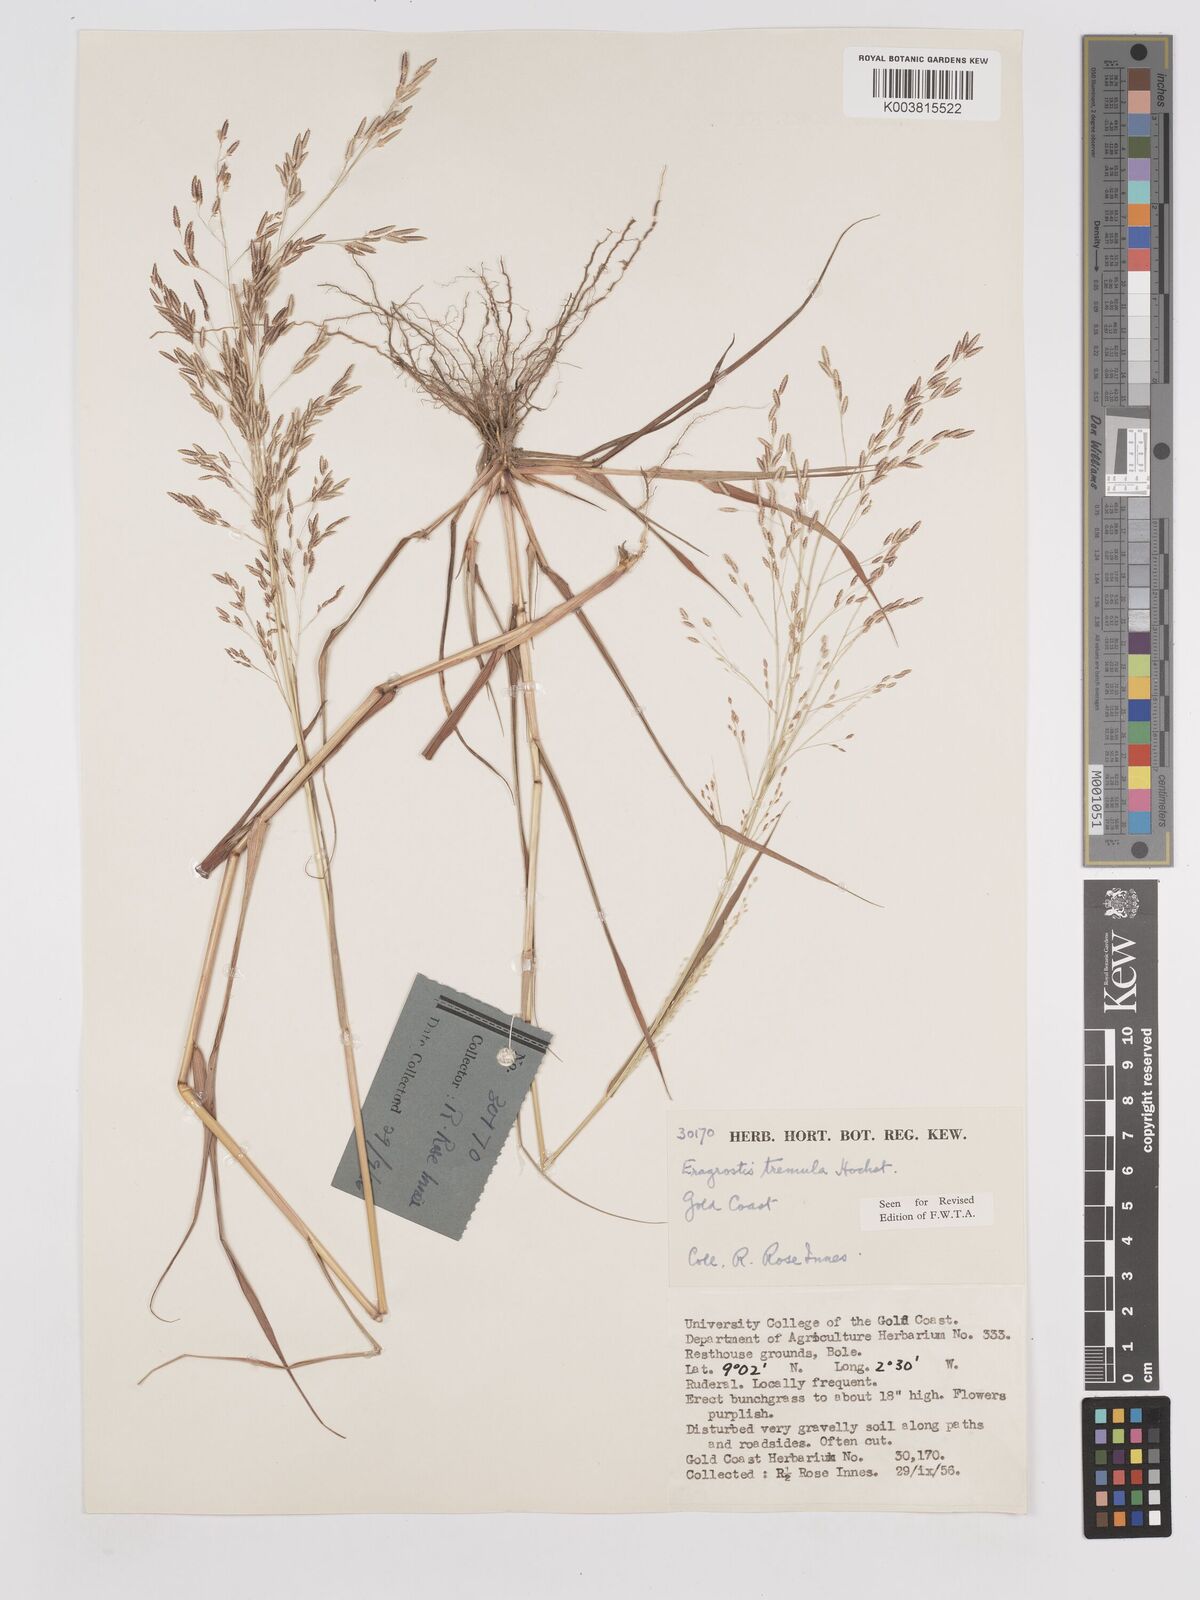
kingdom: Plantae
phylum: Tracheophyta
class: Liliopsida
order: Poales
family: Poaceae
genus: Eragrostis
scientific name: Eragrostis tremula
